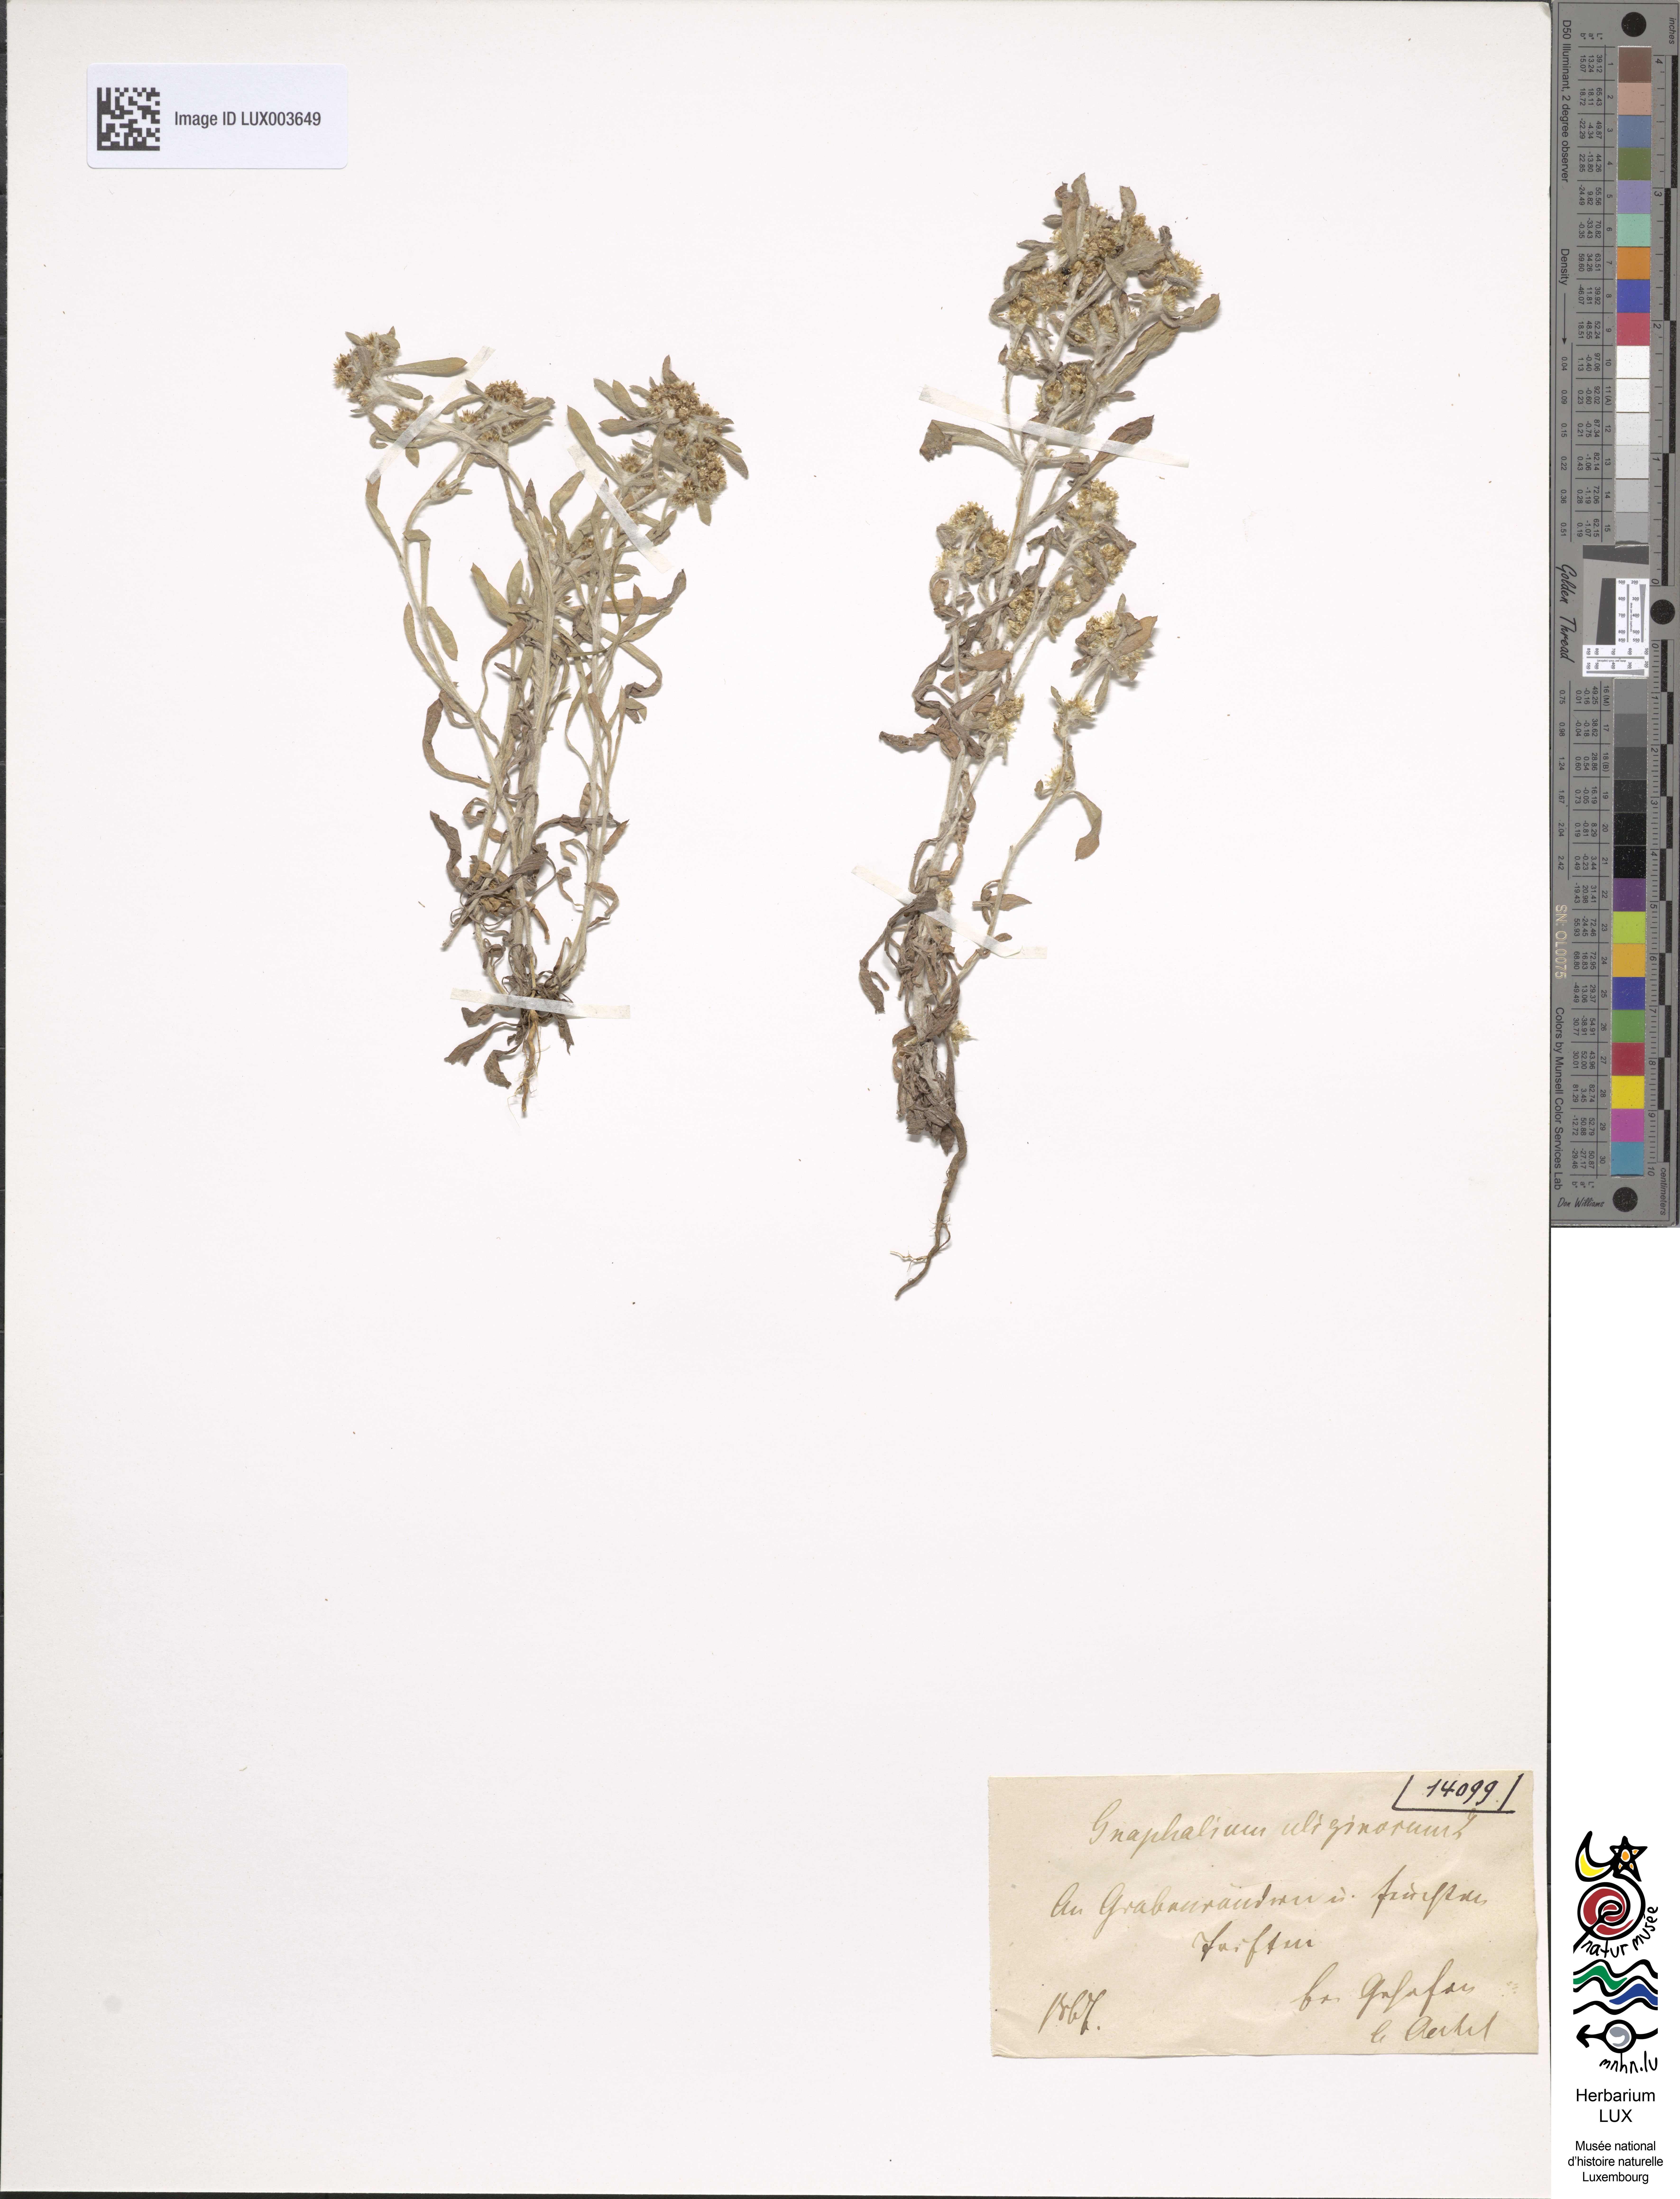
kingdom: Plantae
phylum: Tracheophyta
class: Magnoliopsida
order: Asterales
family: Asteraceae
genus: Gnaphalium
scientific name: Gnaphalium uliginosum
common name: Marsh cudweed
